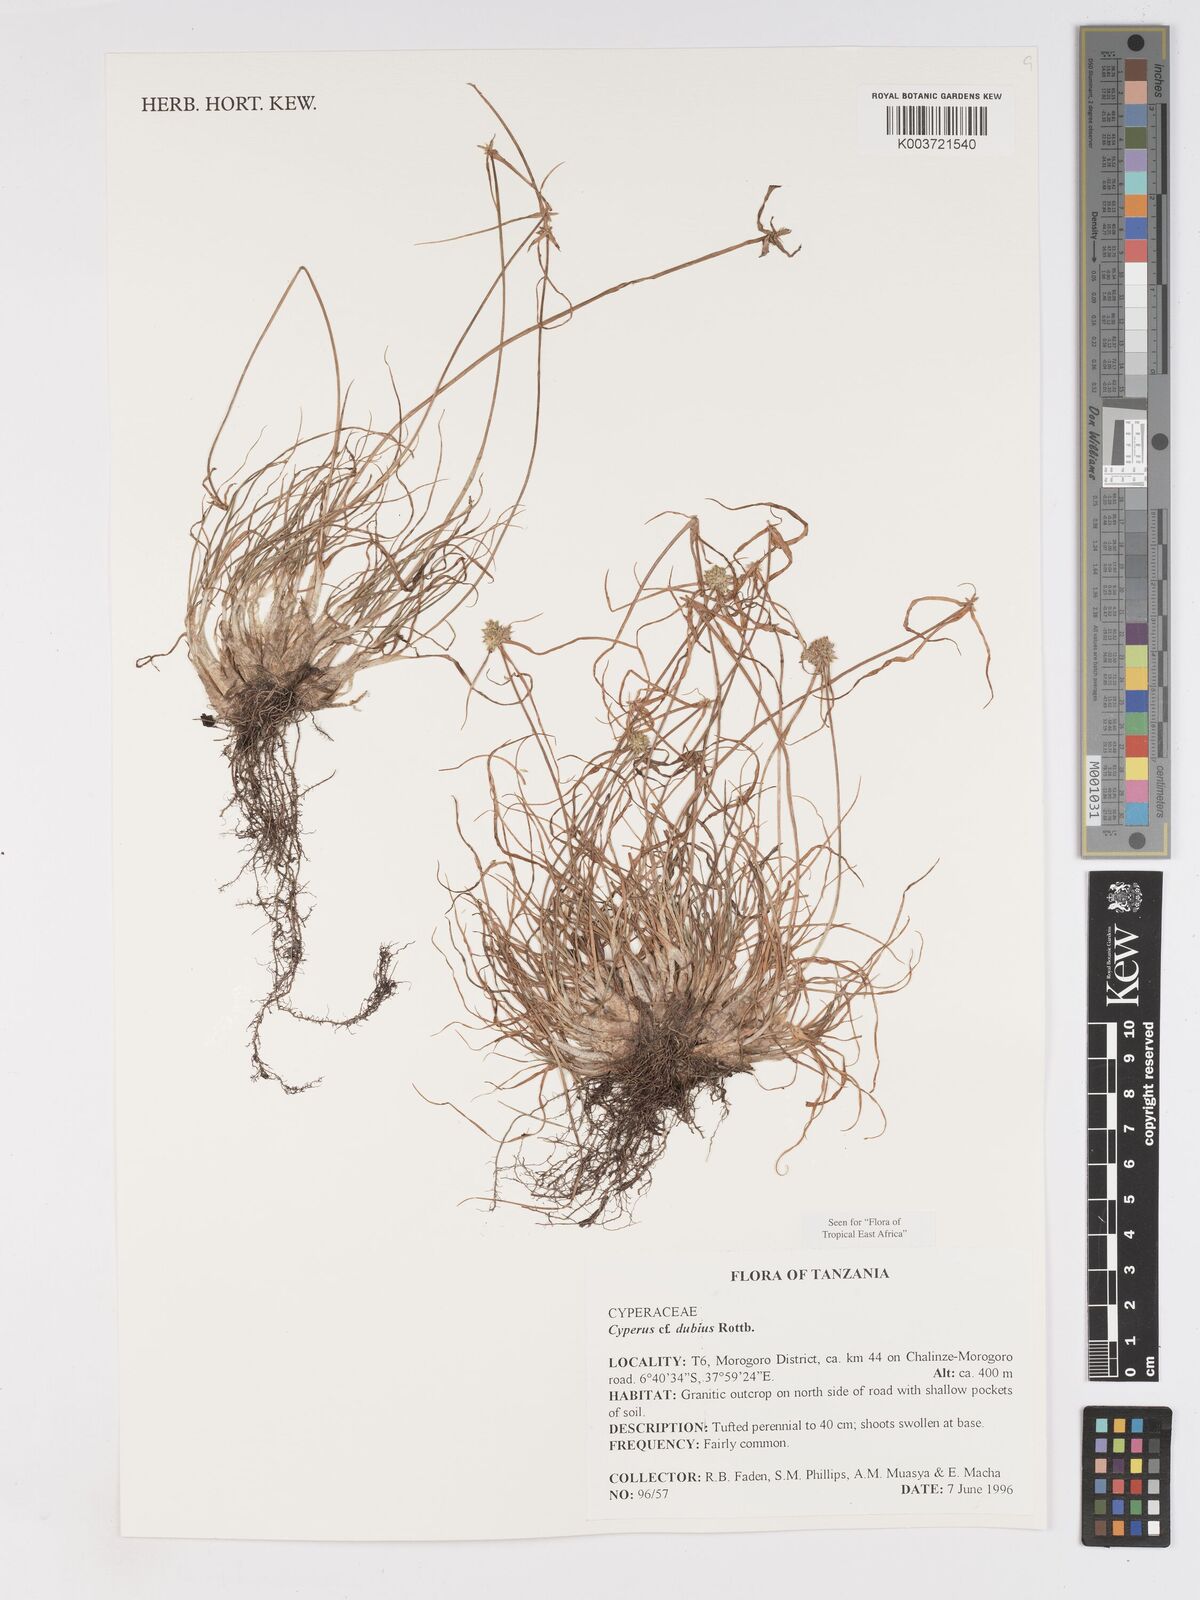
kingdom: Plantae
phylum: Tracheophyta
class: Liliopsida
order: Poales
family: Cyperaceae
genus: Cyperus
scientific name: Cyperus dubius
